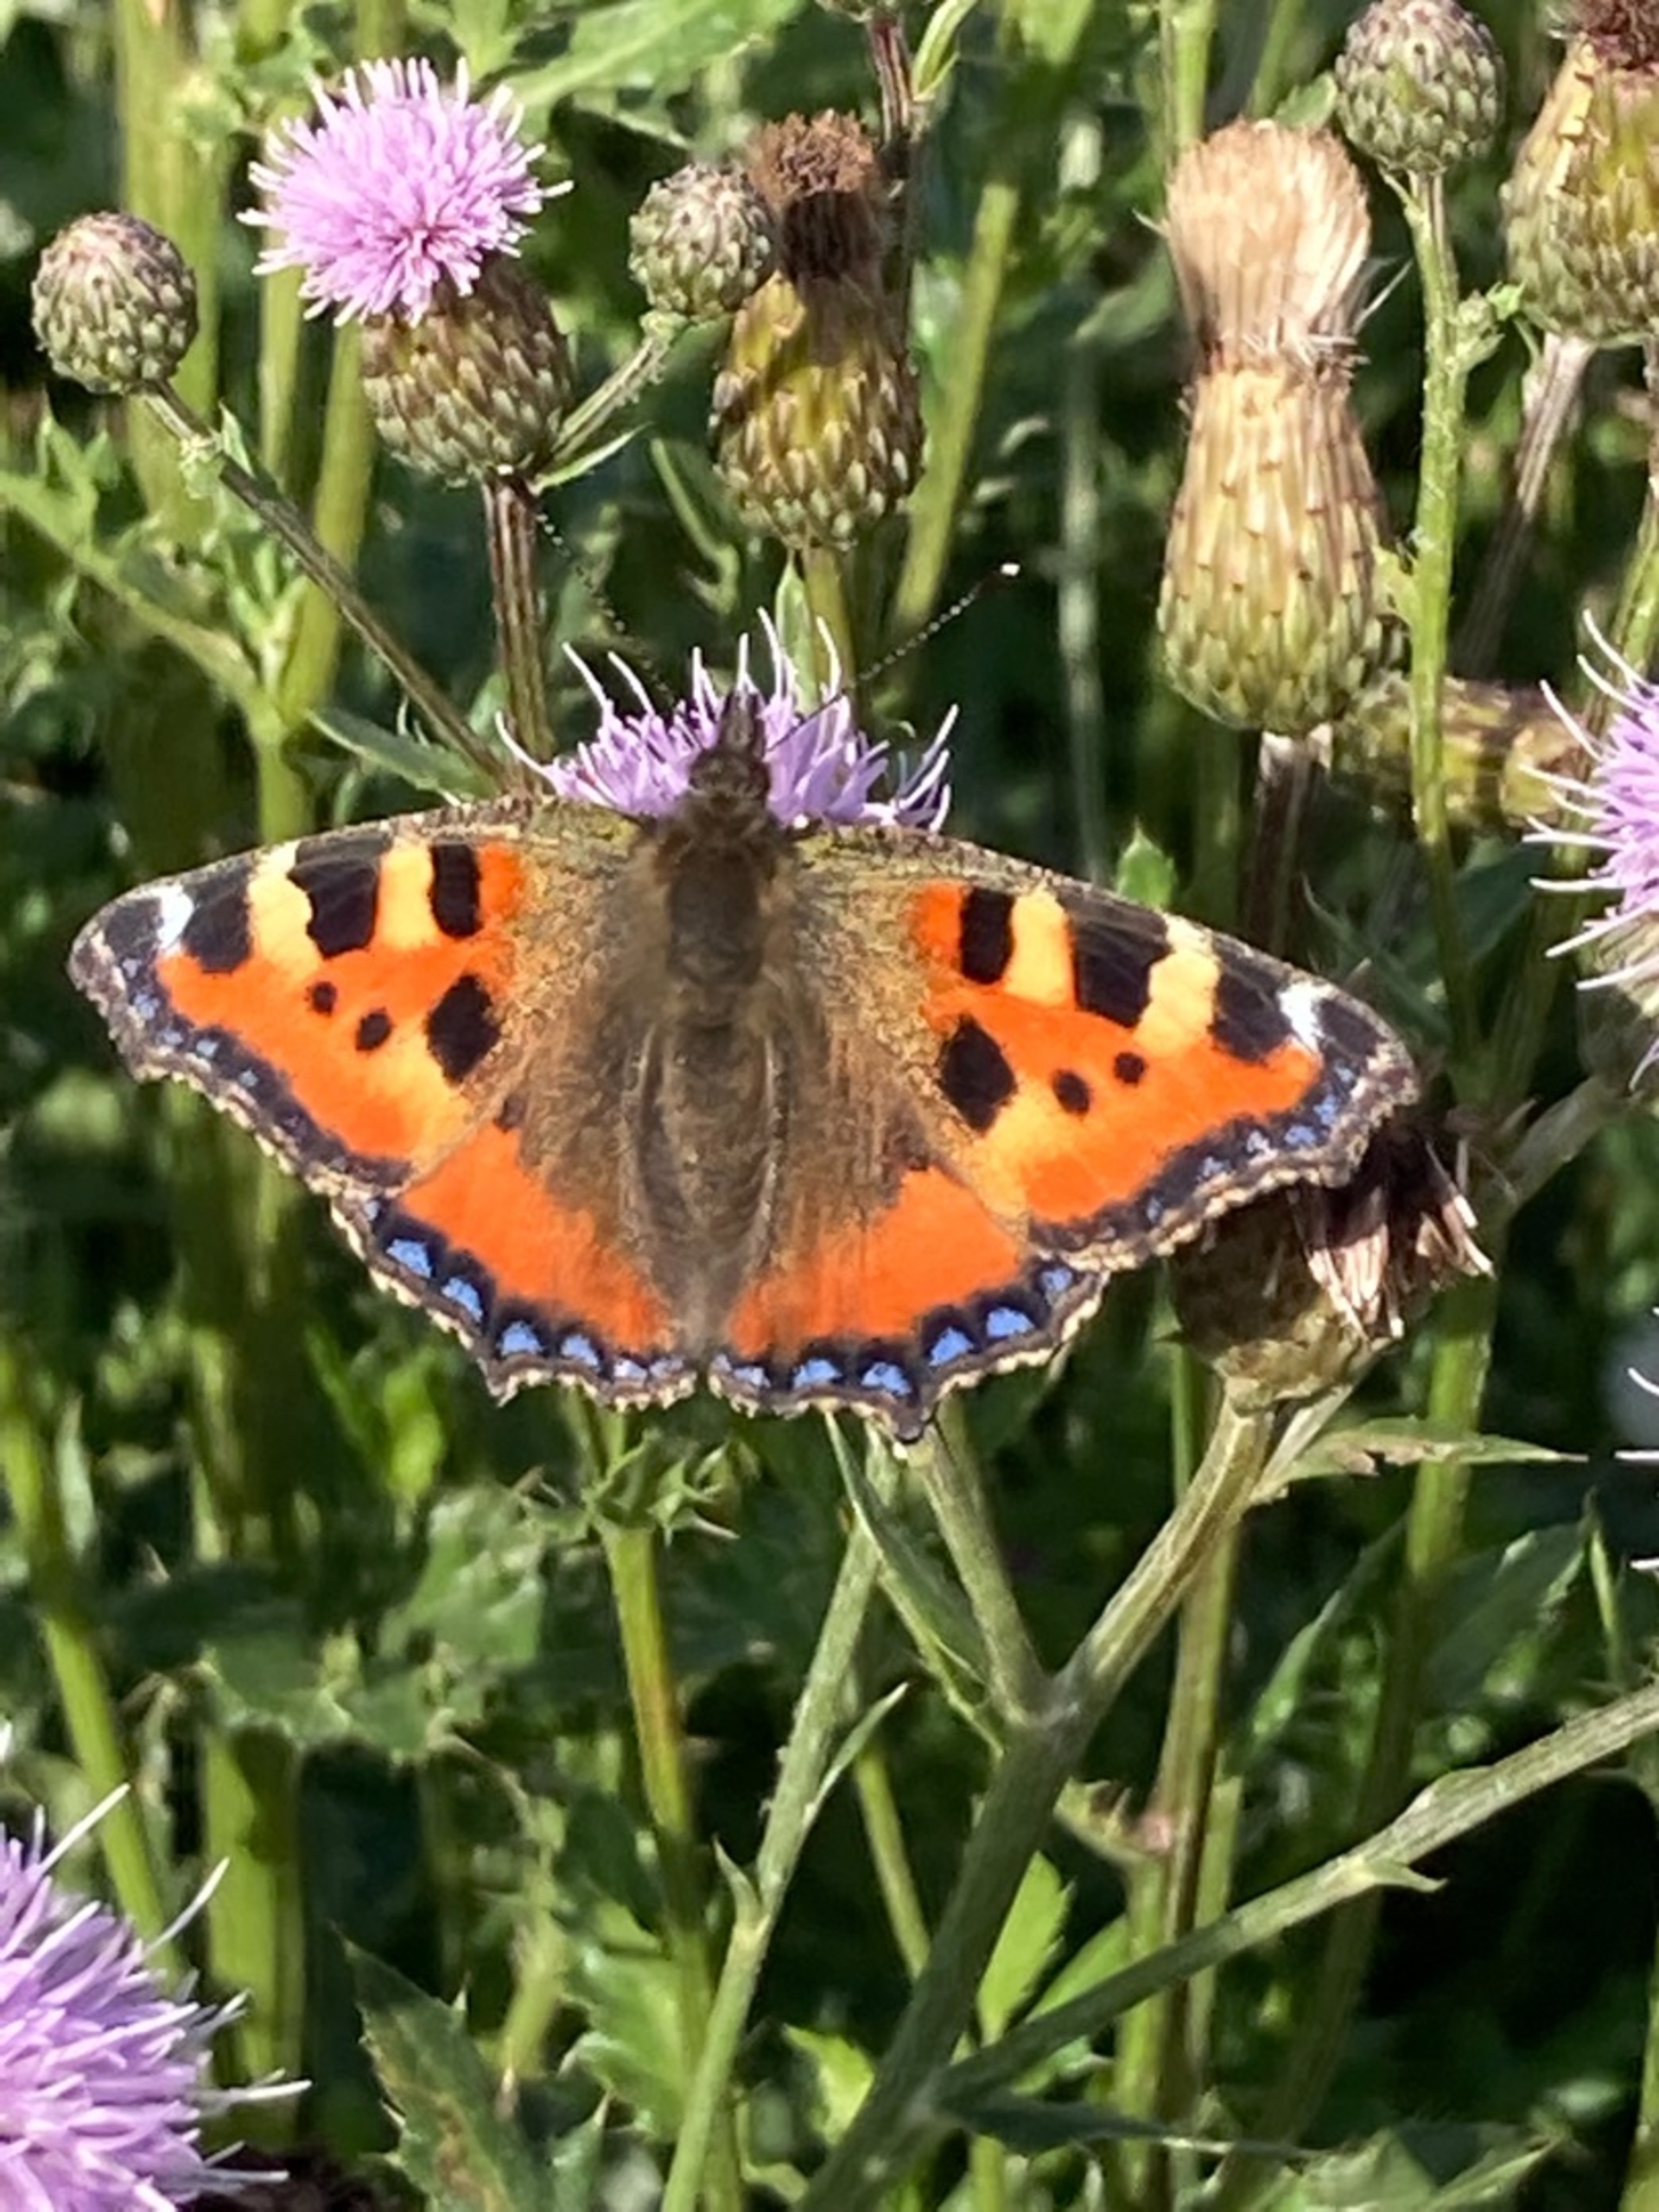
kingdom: Animalia
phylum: Arthropoda
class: Insecta
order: Lepidoptera
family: Nymphalidae
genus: Aglais
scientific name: Aglais urticae
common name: Nældens takvinge
